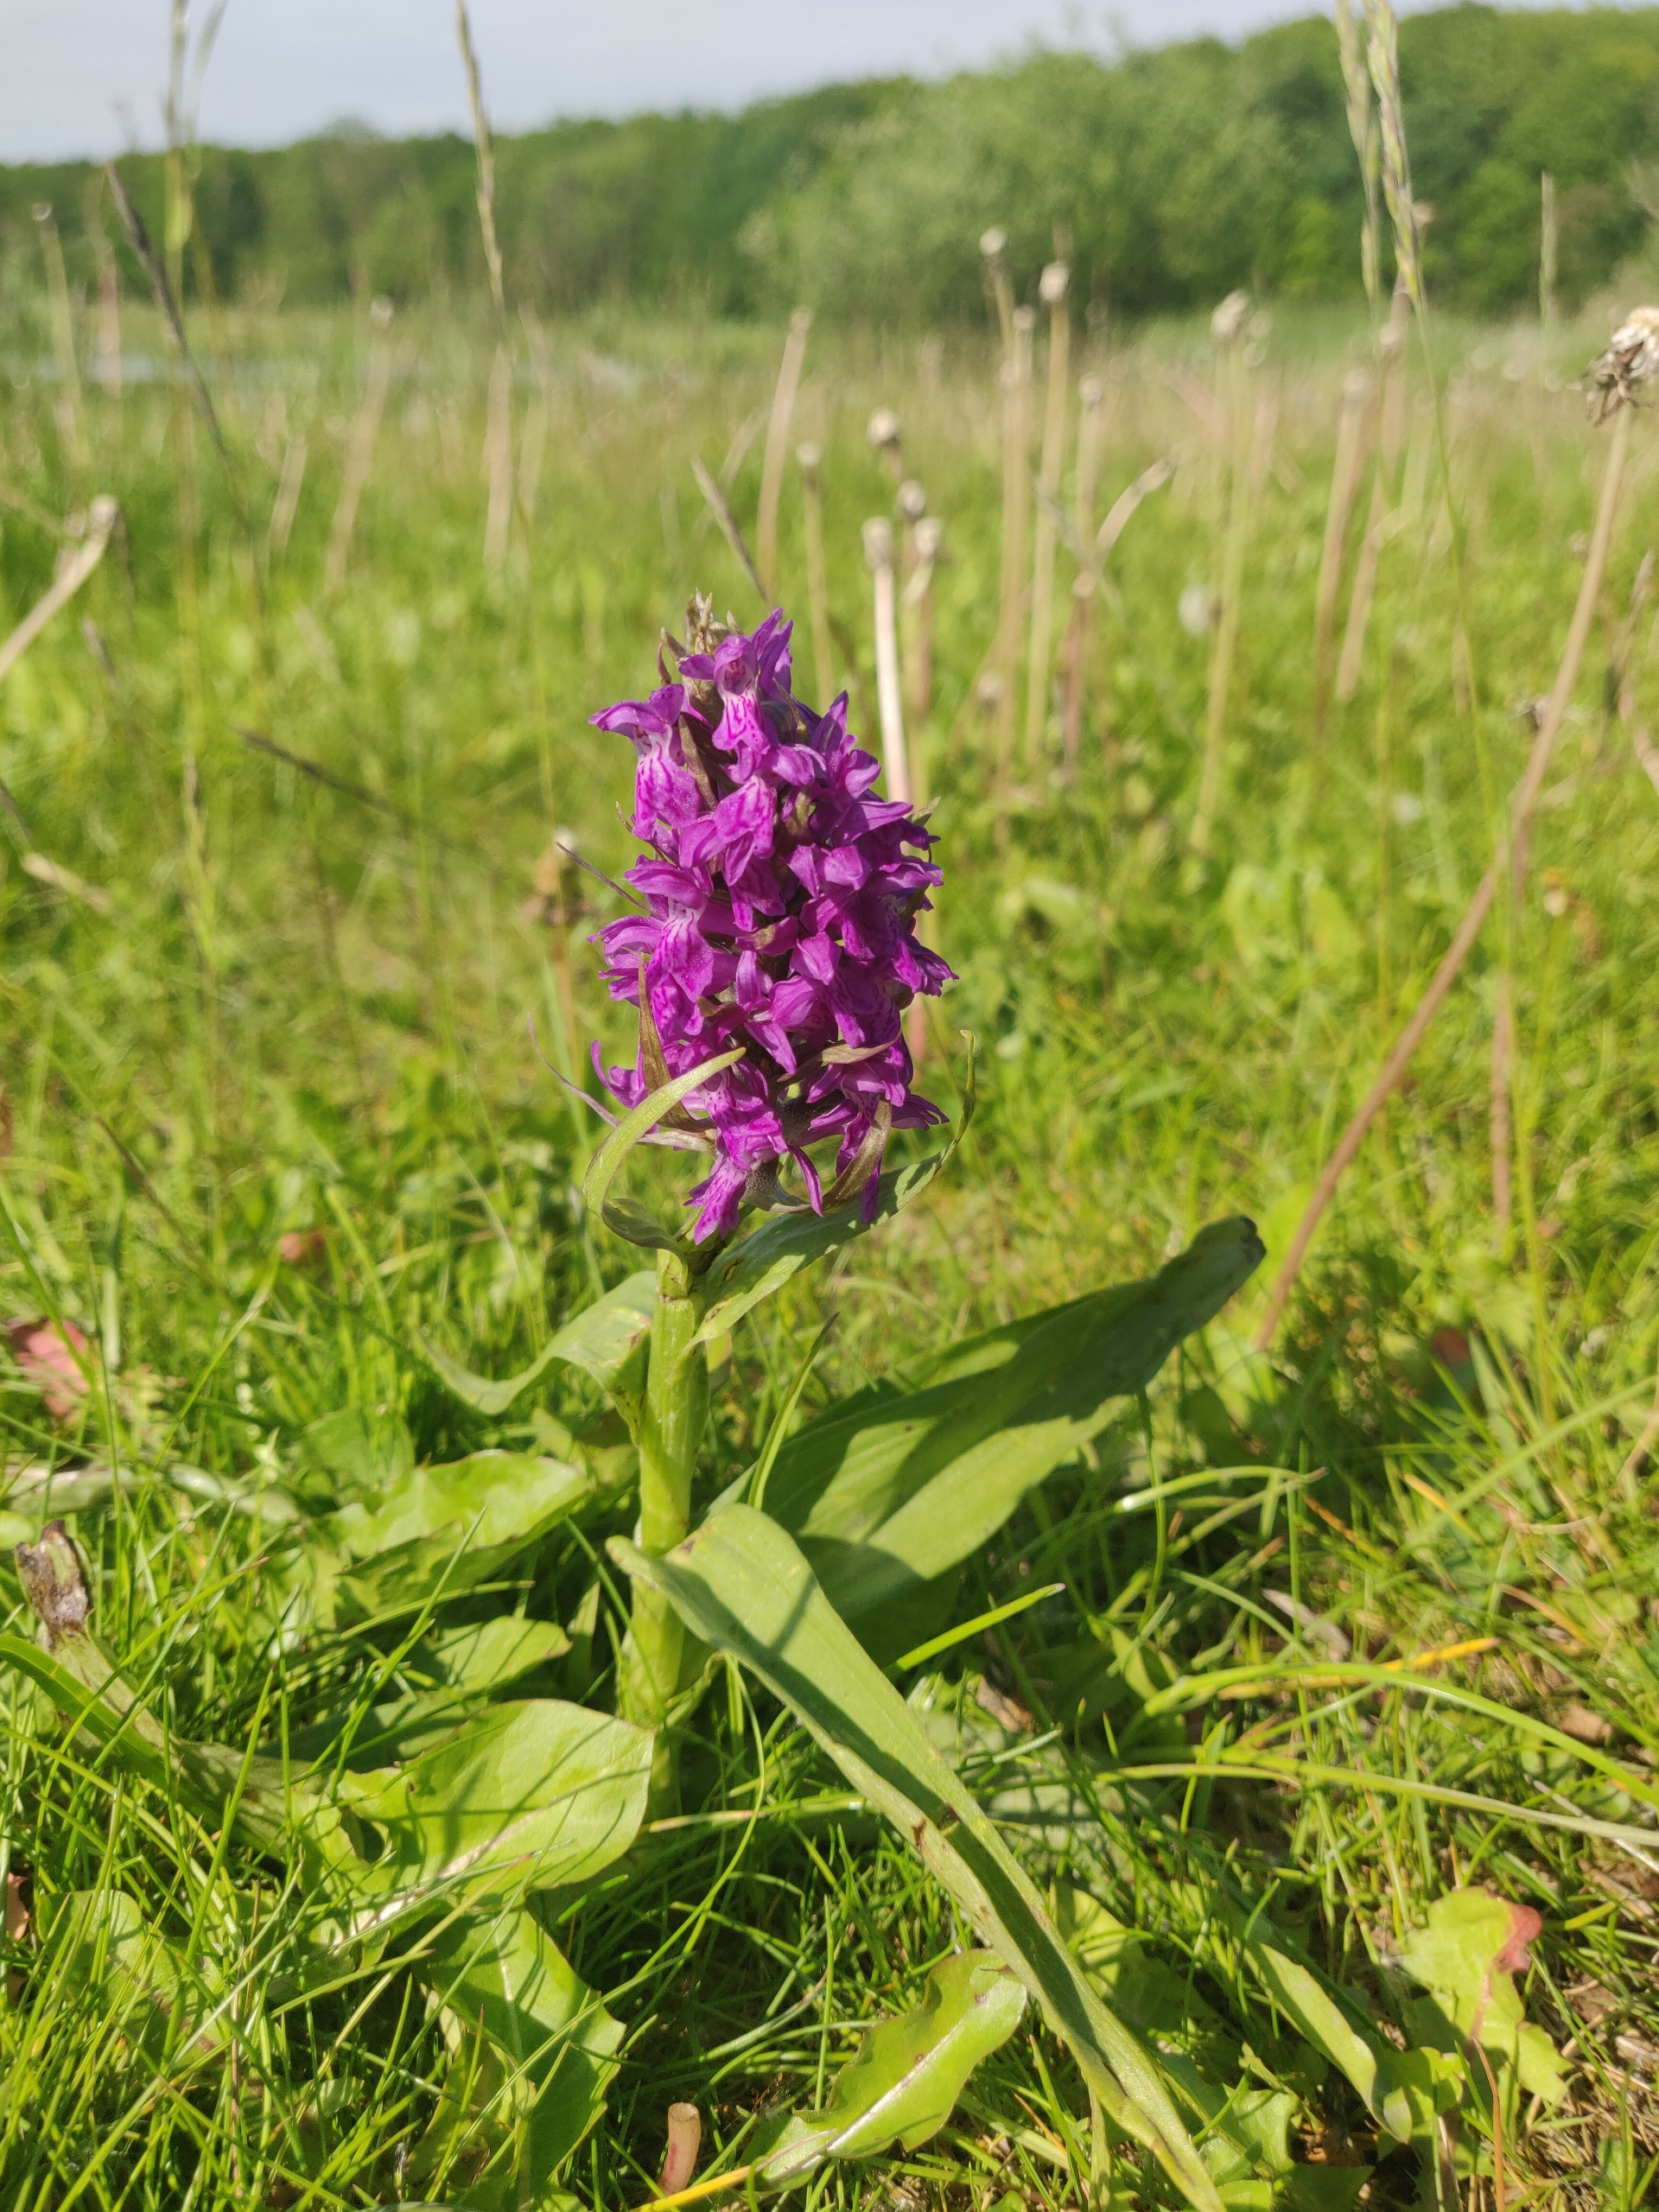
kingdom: Plantae
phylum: Tracheophyta
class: Liliopsida
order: Asparagales
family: Orchidaceae
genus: Dactylorhiza
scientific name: Dactylorhiza incarnata
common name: Kødfarvet gøgeurt
